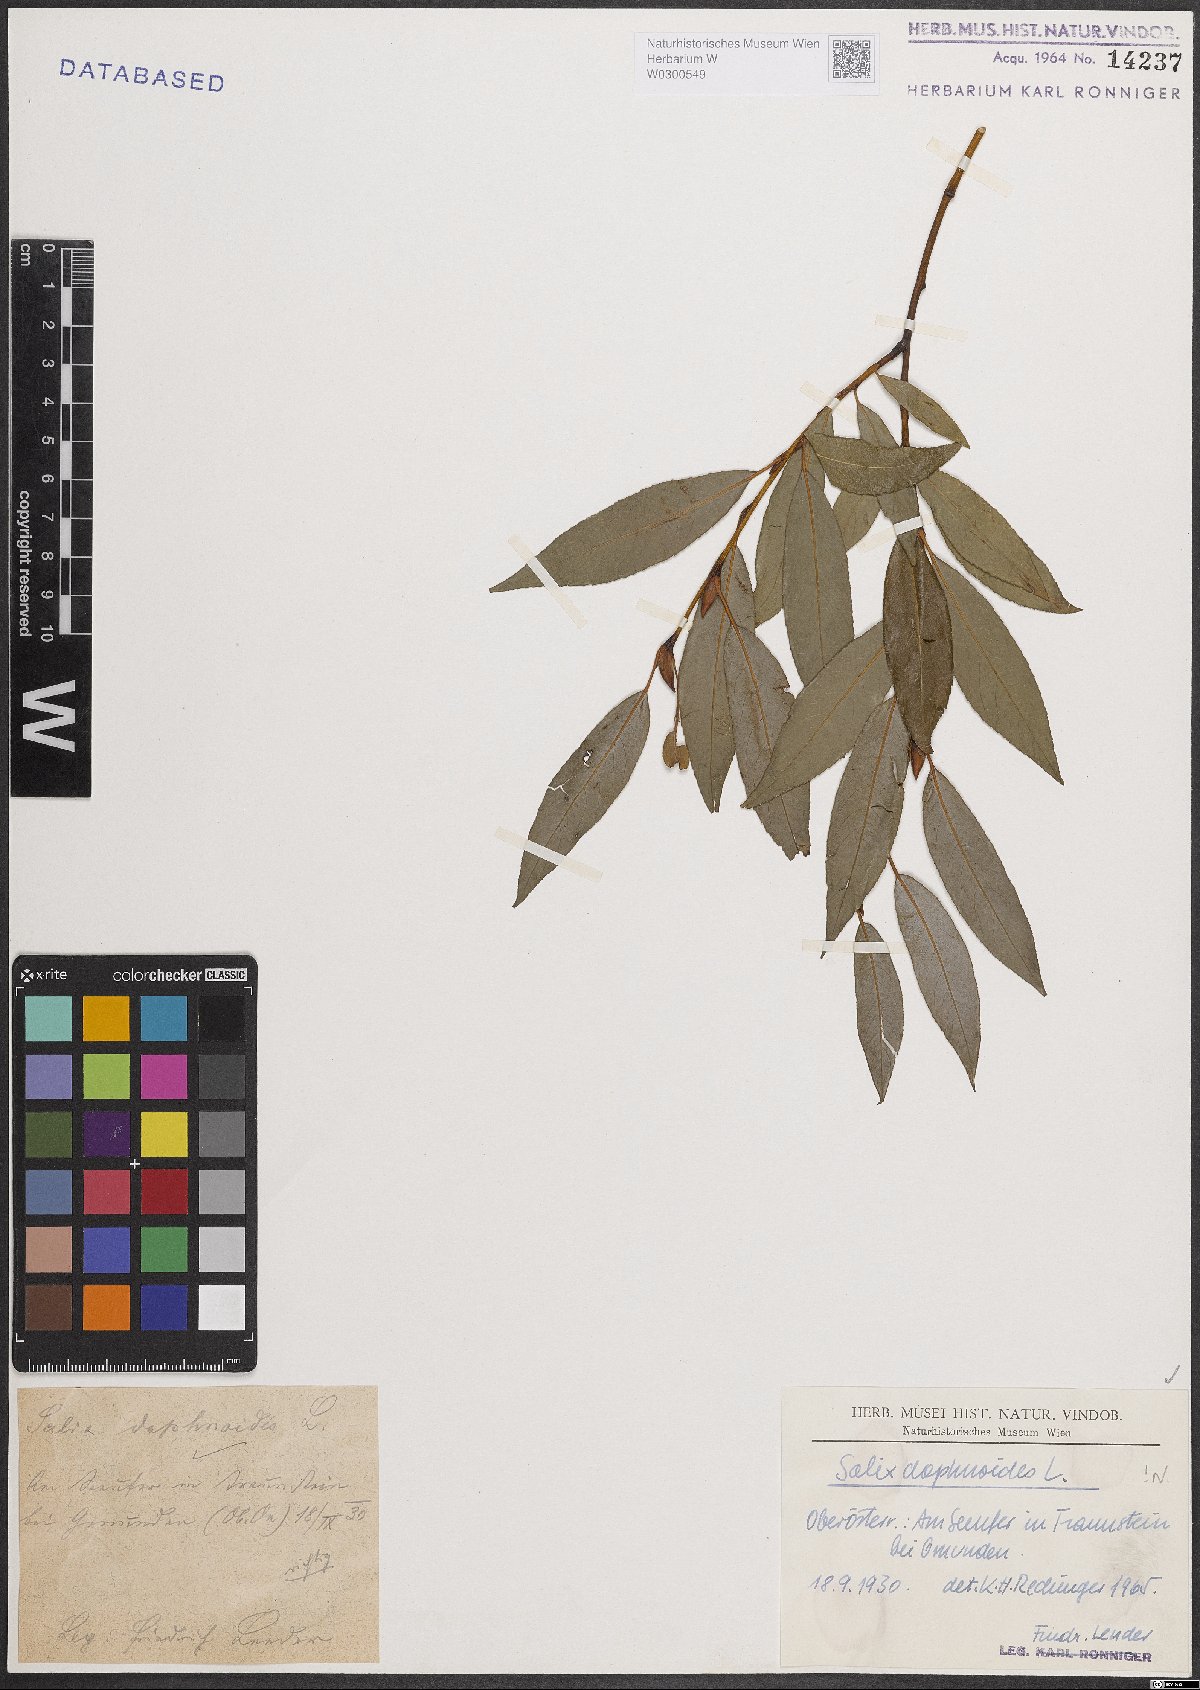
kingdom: Plantae
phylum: Tracheophyta
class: Magnoliopsida
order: Malpighiales
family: Salicaceae
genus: Salix
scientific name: Salix daphnoides
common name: European violet-willow
